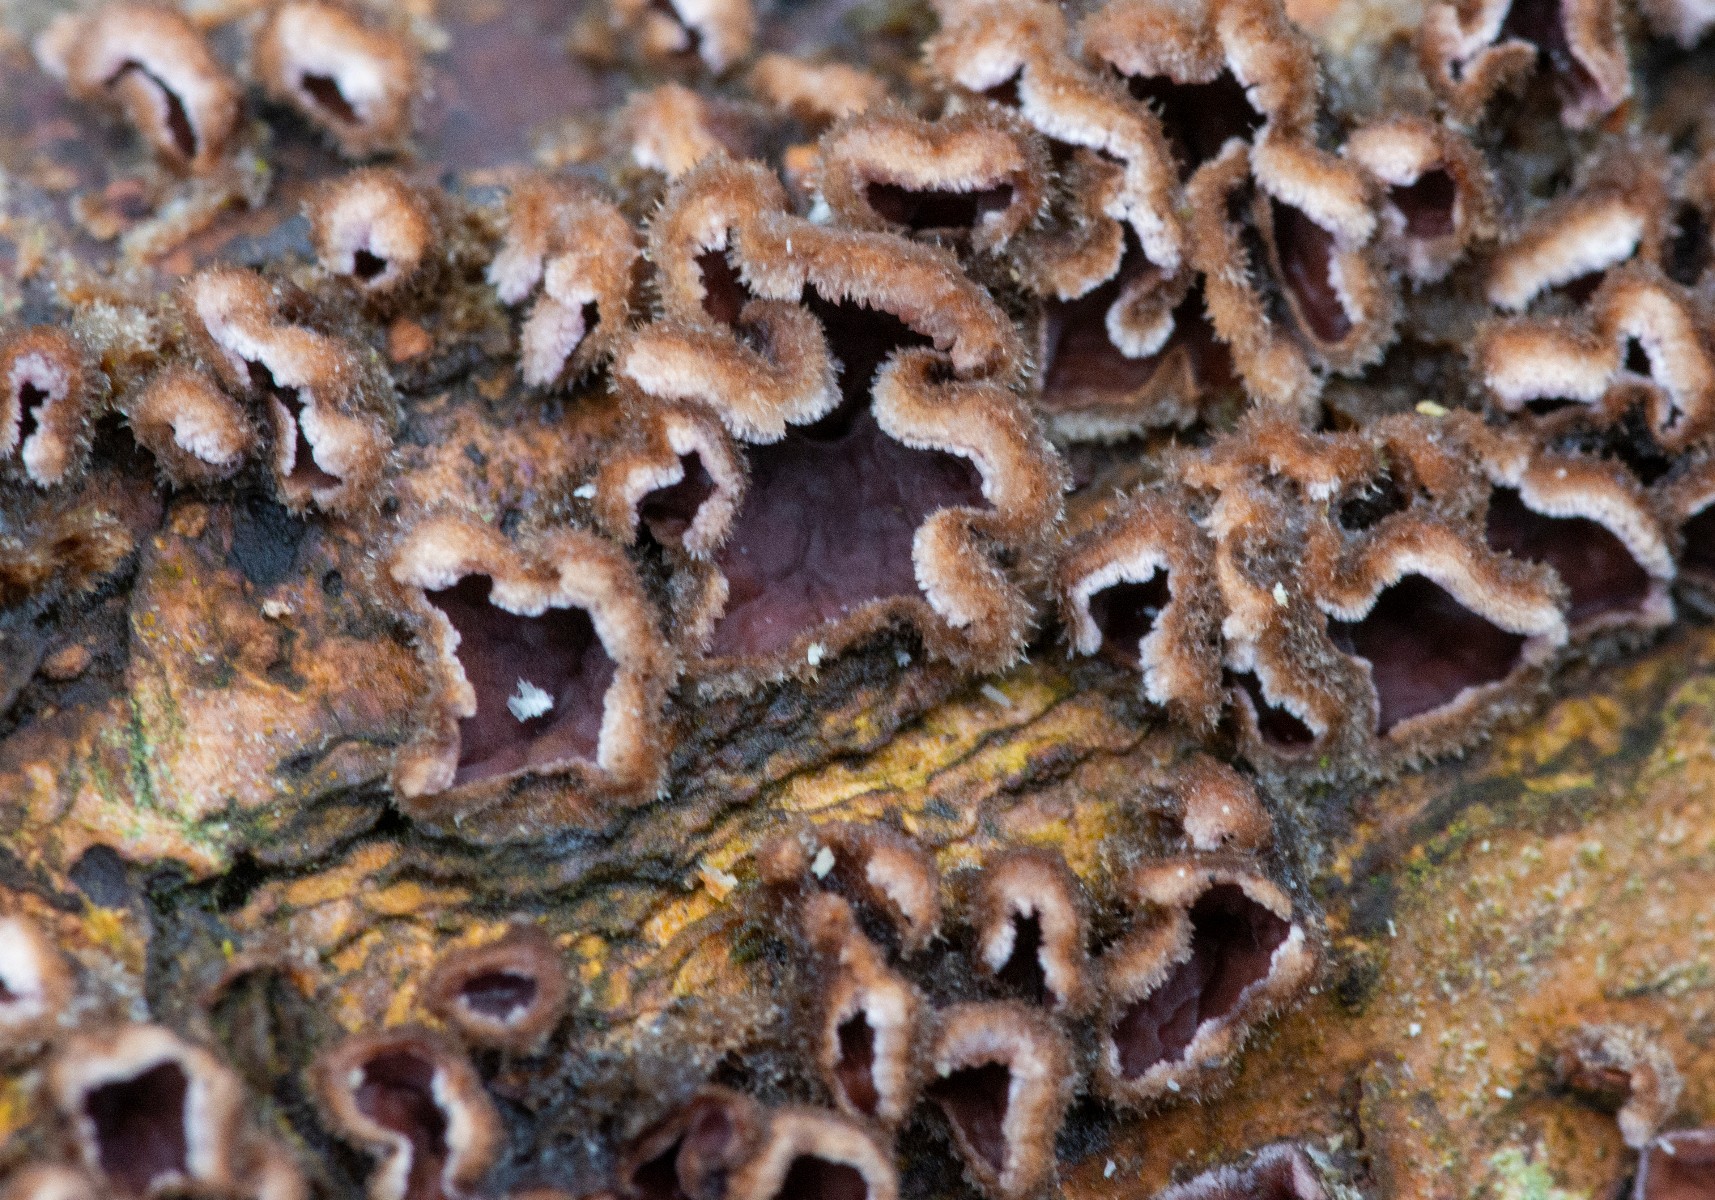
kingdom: Fungi
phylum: Basidiomycota
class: Agaricomycetes
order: Agaricales
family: Cyphellaceae
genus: Chondrostereum
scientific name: Chondrostereum
